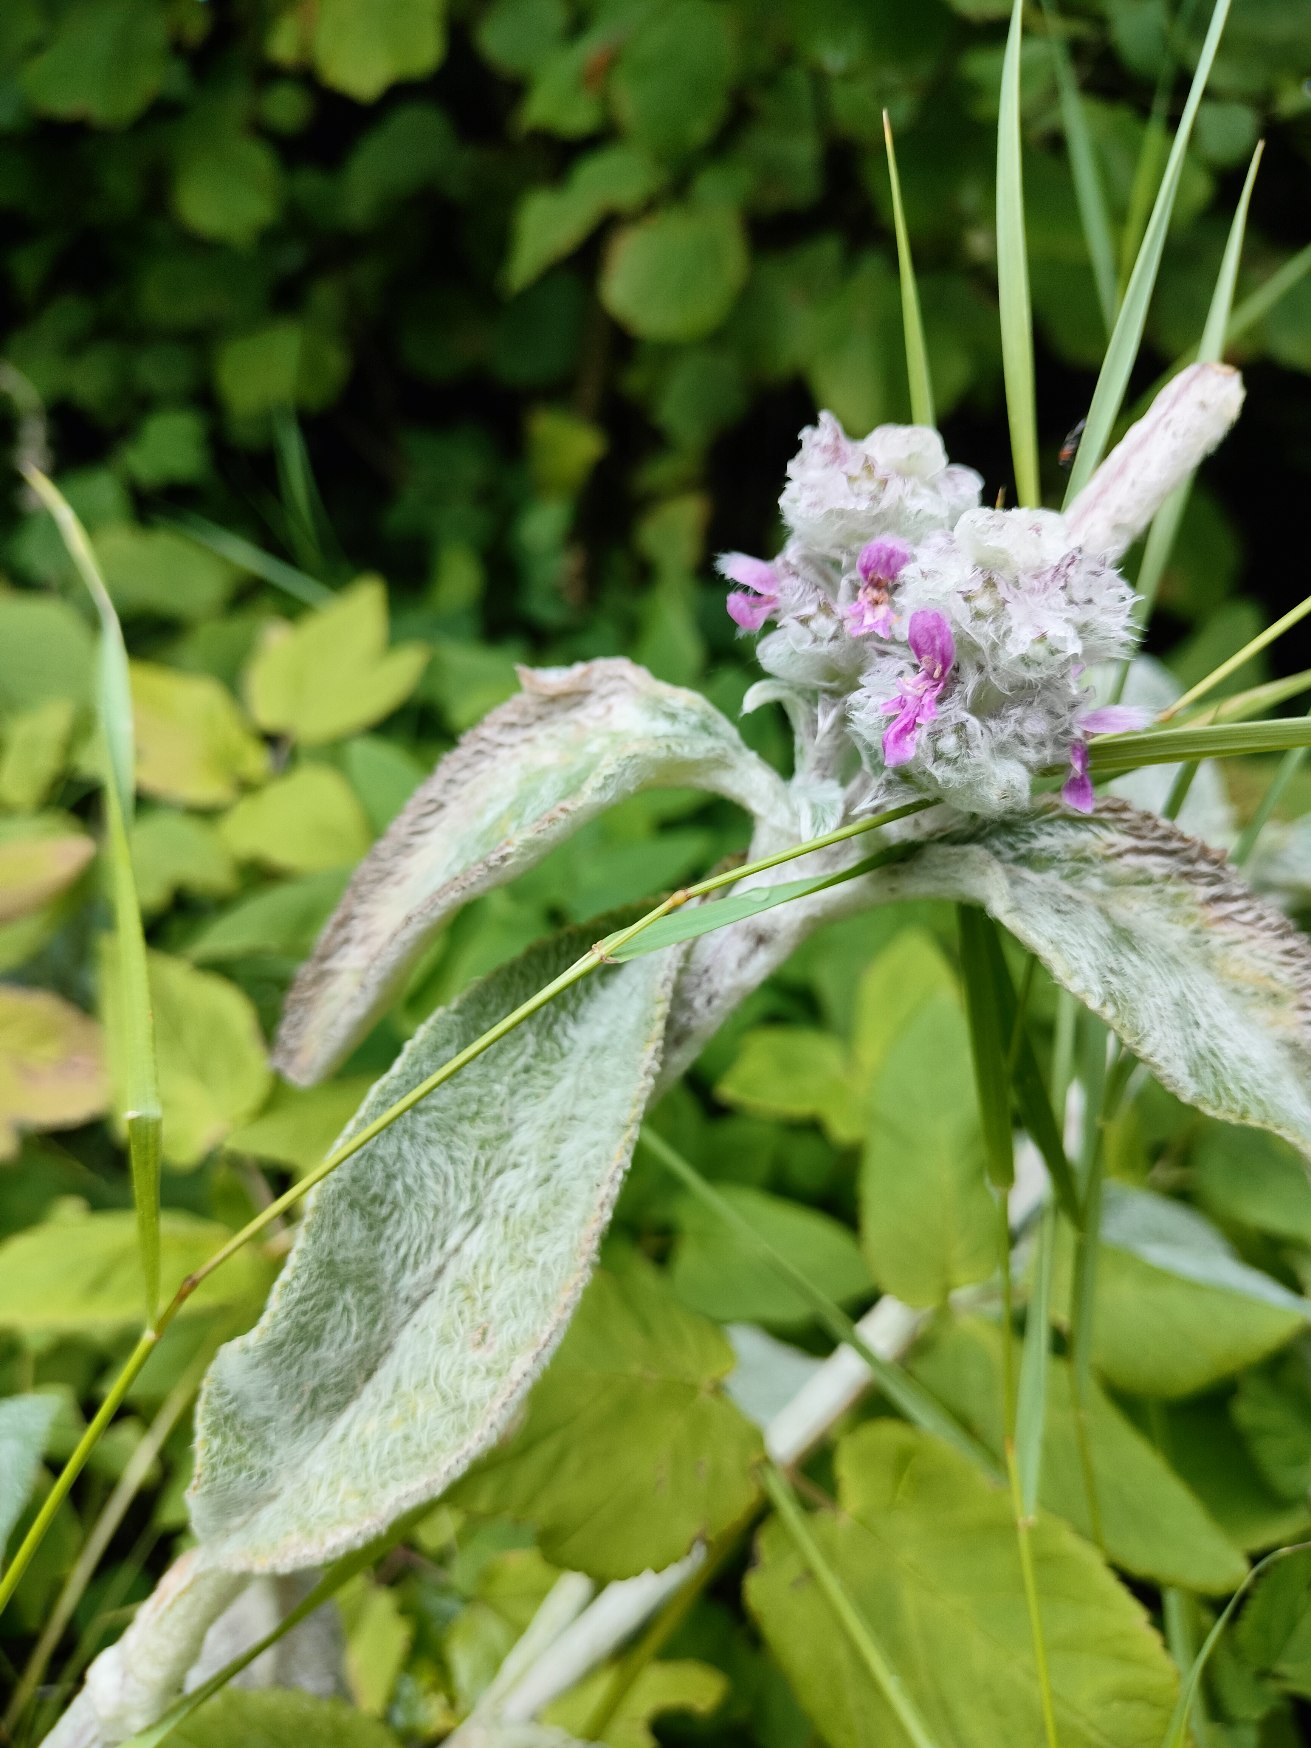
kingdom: Plantae
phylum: Tracheophyta
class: Magnoliopsida
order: Lamiales
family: Lamiaceae
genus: Stachys
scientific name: Stachys byzantina
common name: Lammeøre
